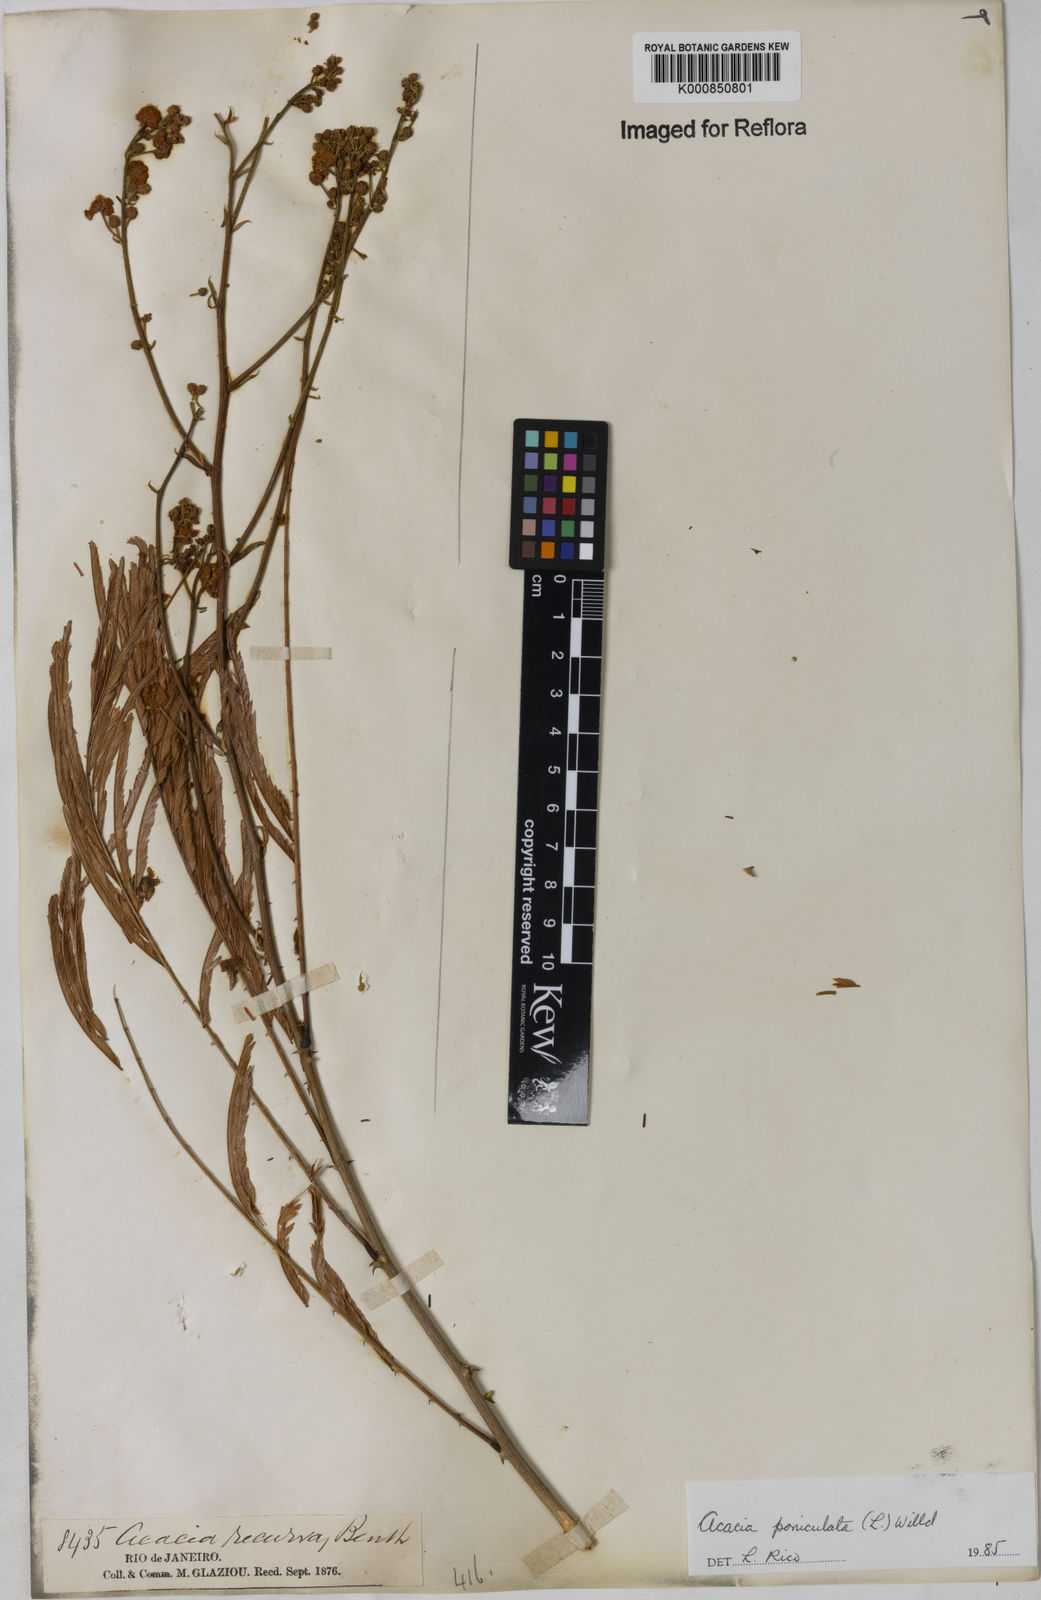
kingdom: Plantae
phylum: Tracheophyta
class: Magnoliopsida
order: Fabales
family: Fabaceae
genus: Senegalia
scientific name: Senegalia tenuifolia
